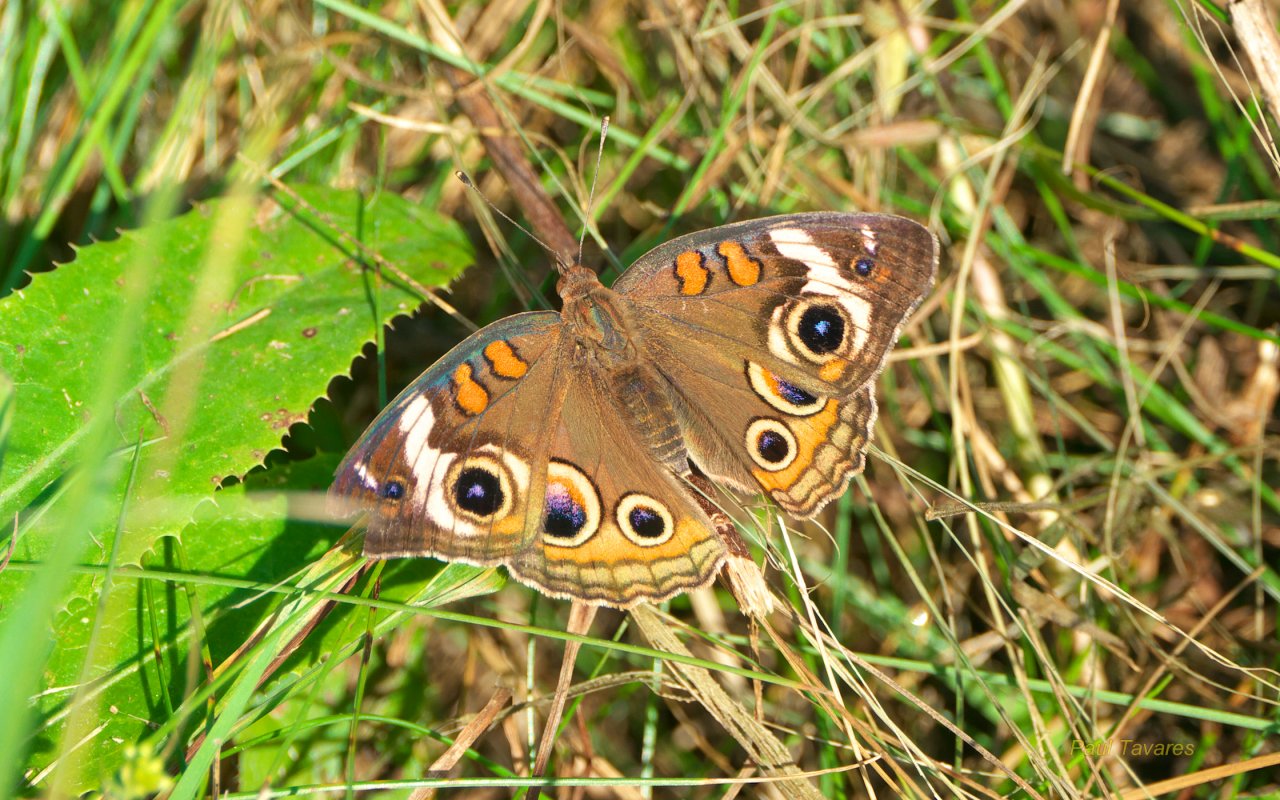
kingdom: Animalia
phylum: Arthropoda
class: Insecta
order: Lepidoptera
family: Nymphalidae
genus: Junonia
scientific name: Junonia coenia
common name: Common Buckeye
